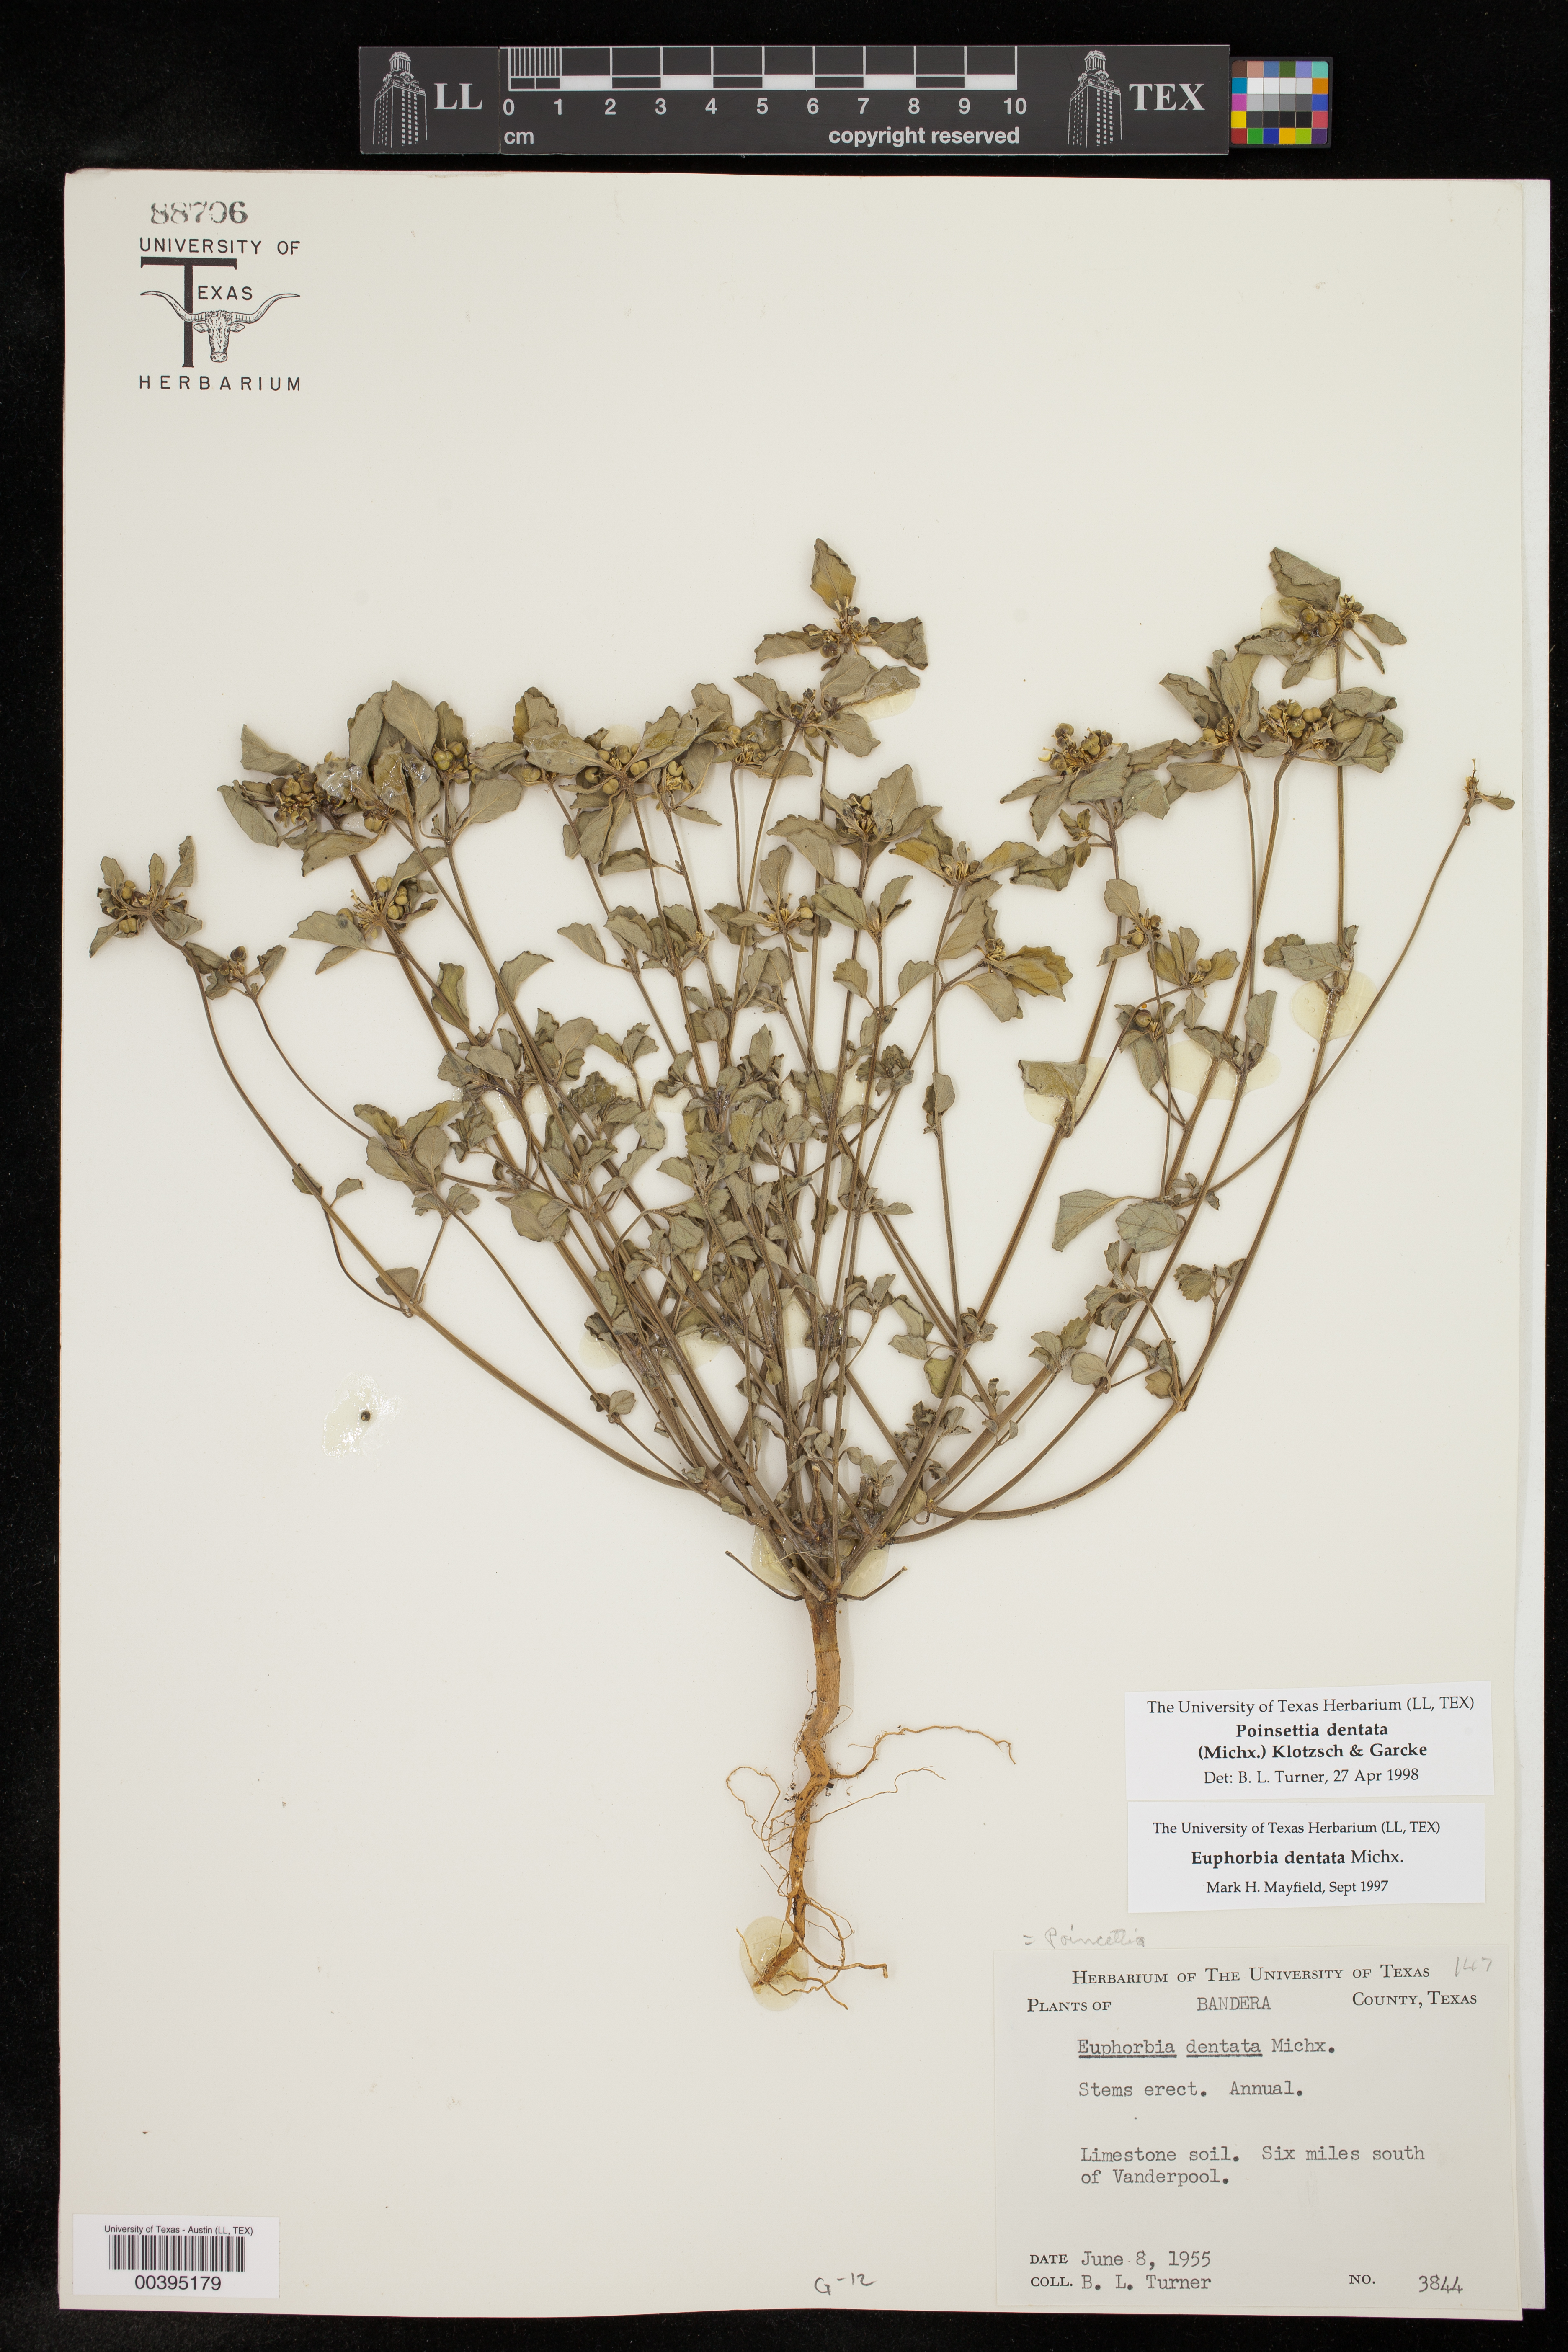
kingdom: Plantae
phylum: Tracheophyta
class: Magnoliopsida
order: Malpighiales
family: Euphorbiaceae
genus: Euphorbia
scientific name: Euphorbia dentata
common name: Dentate spurge
